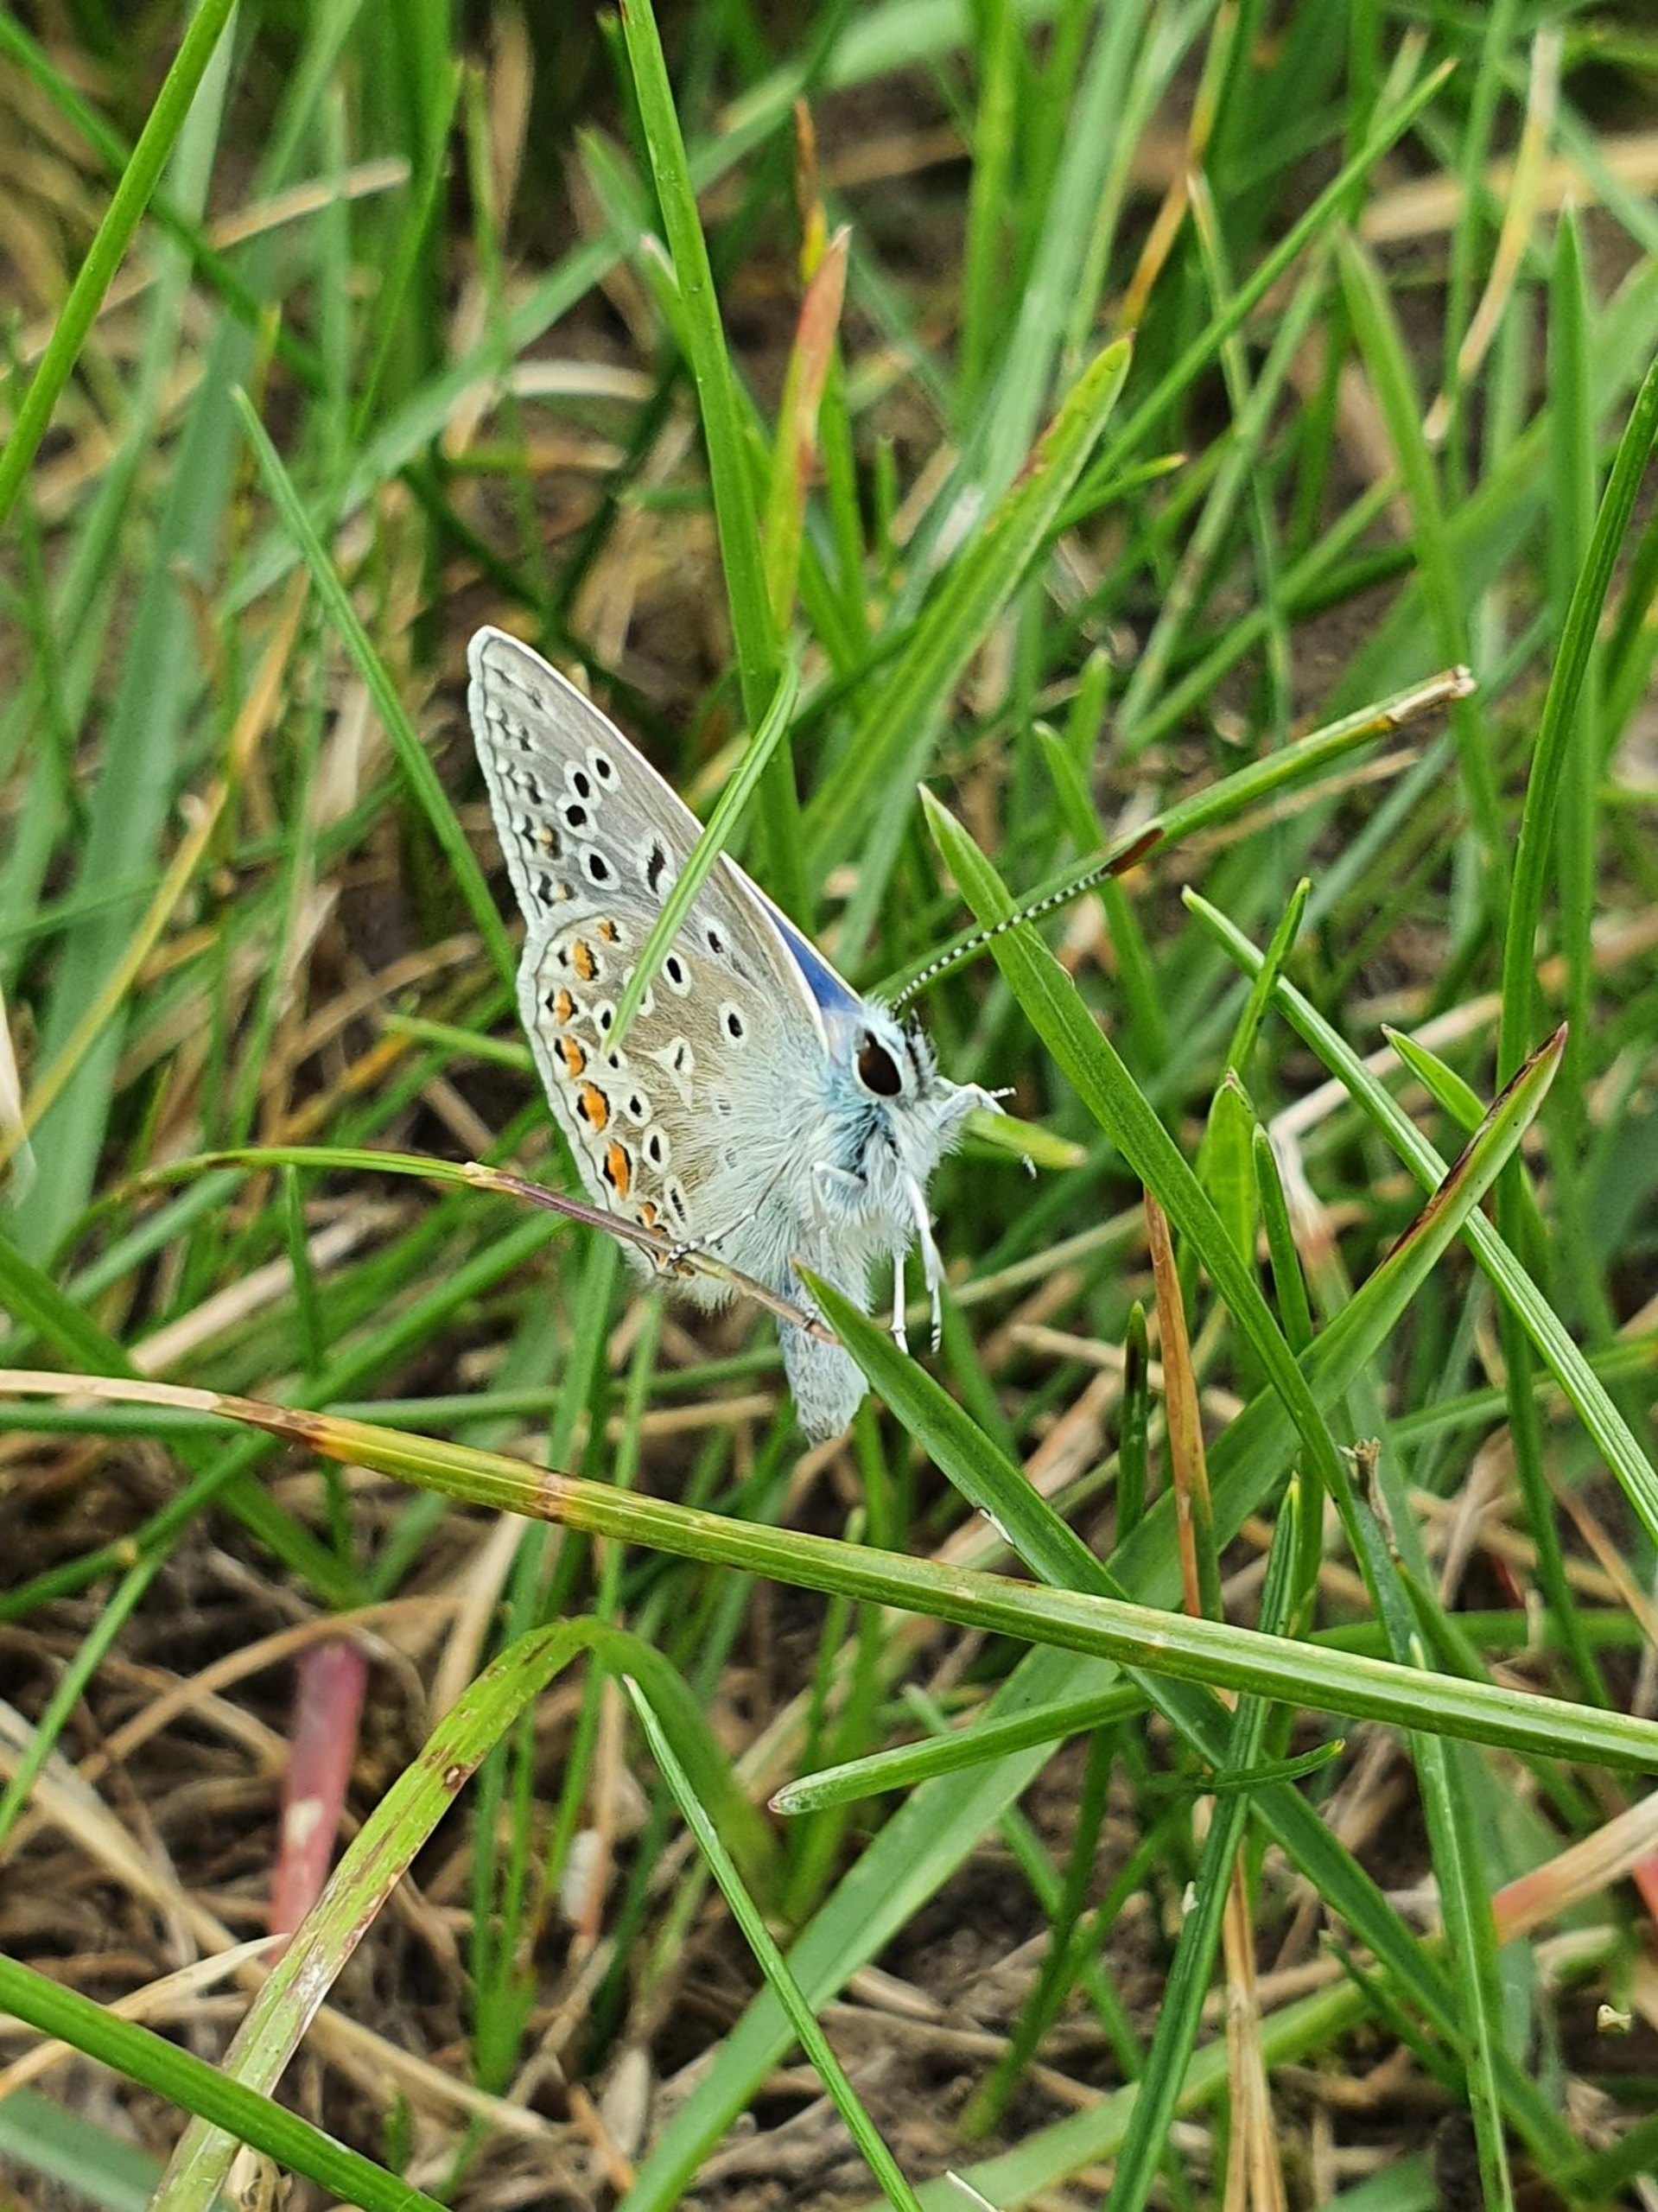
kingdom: Animalia
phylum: Arthropoda
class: Insecta
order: Lepidoptera
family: Lycaenidae
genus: Polyommatus
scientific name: Polyommatus icarus
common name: Almindelig blåfugl
